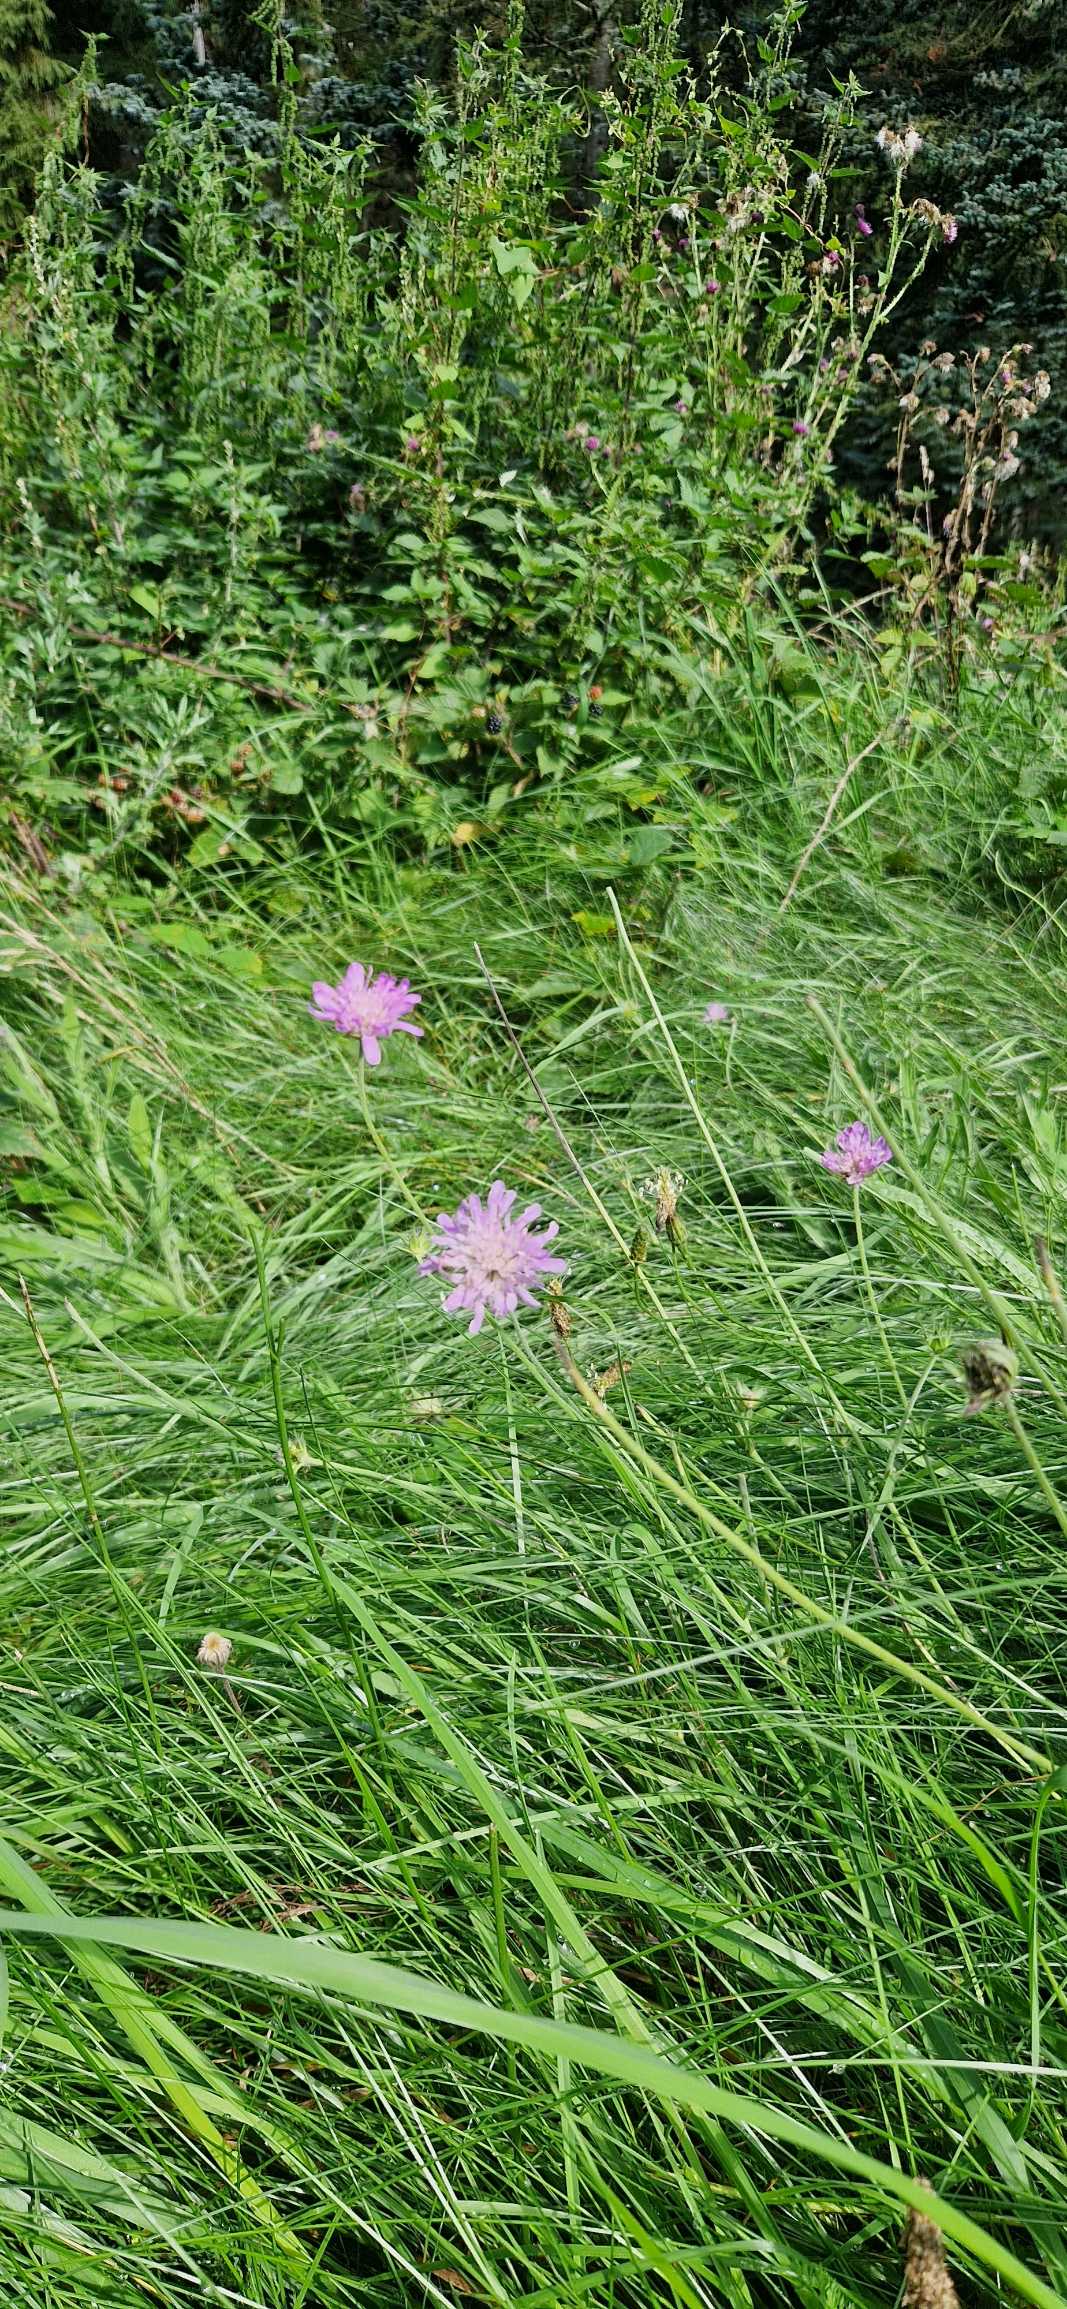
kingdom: Plantae
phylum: Tracheophyta
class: Magnoliopsida
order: Dipsacales
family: Caprifoliaceae
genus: Knautia
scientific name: Knautia arvensis
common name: Blåhat
